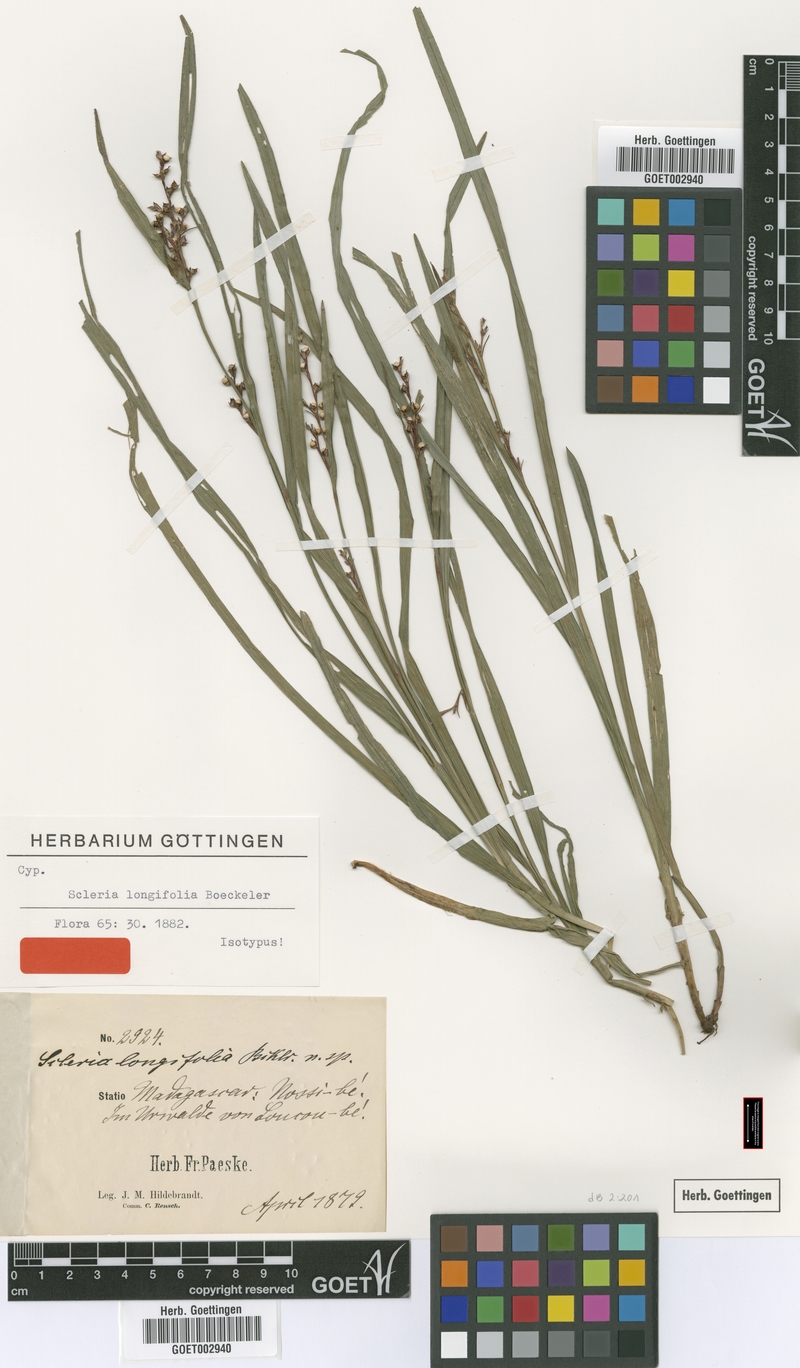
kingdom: Plantae
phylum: Tracheophyta
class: Liliopsida
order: Poales
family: Cyperaceae
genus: Scleria
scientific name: Scleria gaertneri
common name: Cortadera blanca
